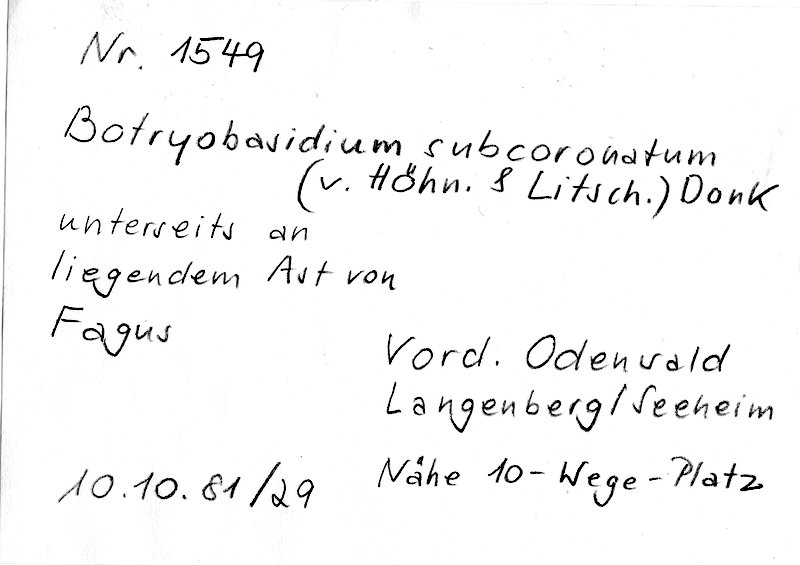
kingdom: Fungi
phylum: Basidiomycota
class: Agaricomycetes
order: Cantharellales
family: Botryobasidiaceae
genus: Botryobasidium
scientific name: Botryobasidium subcoronatum
